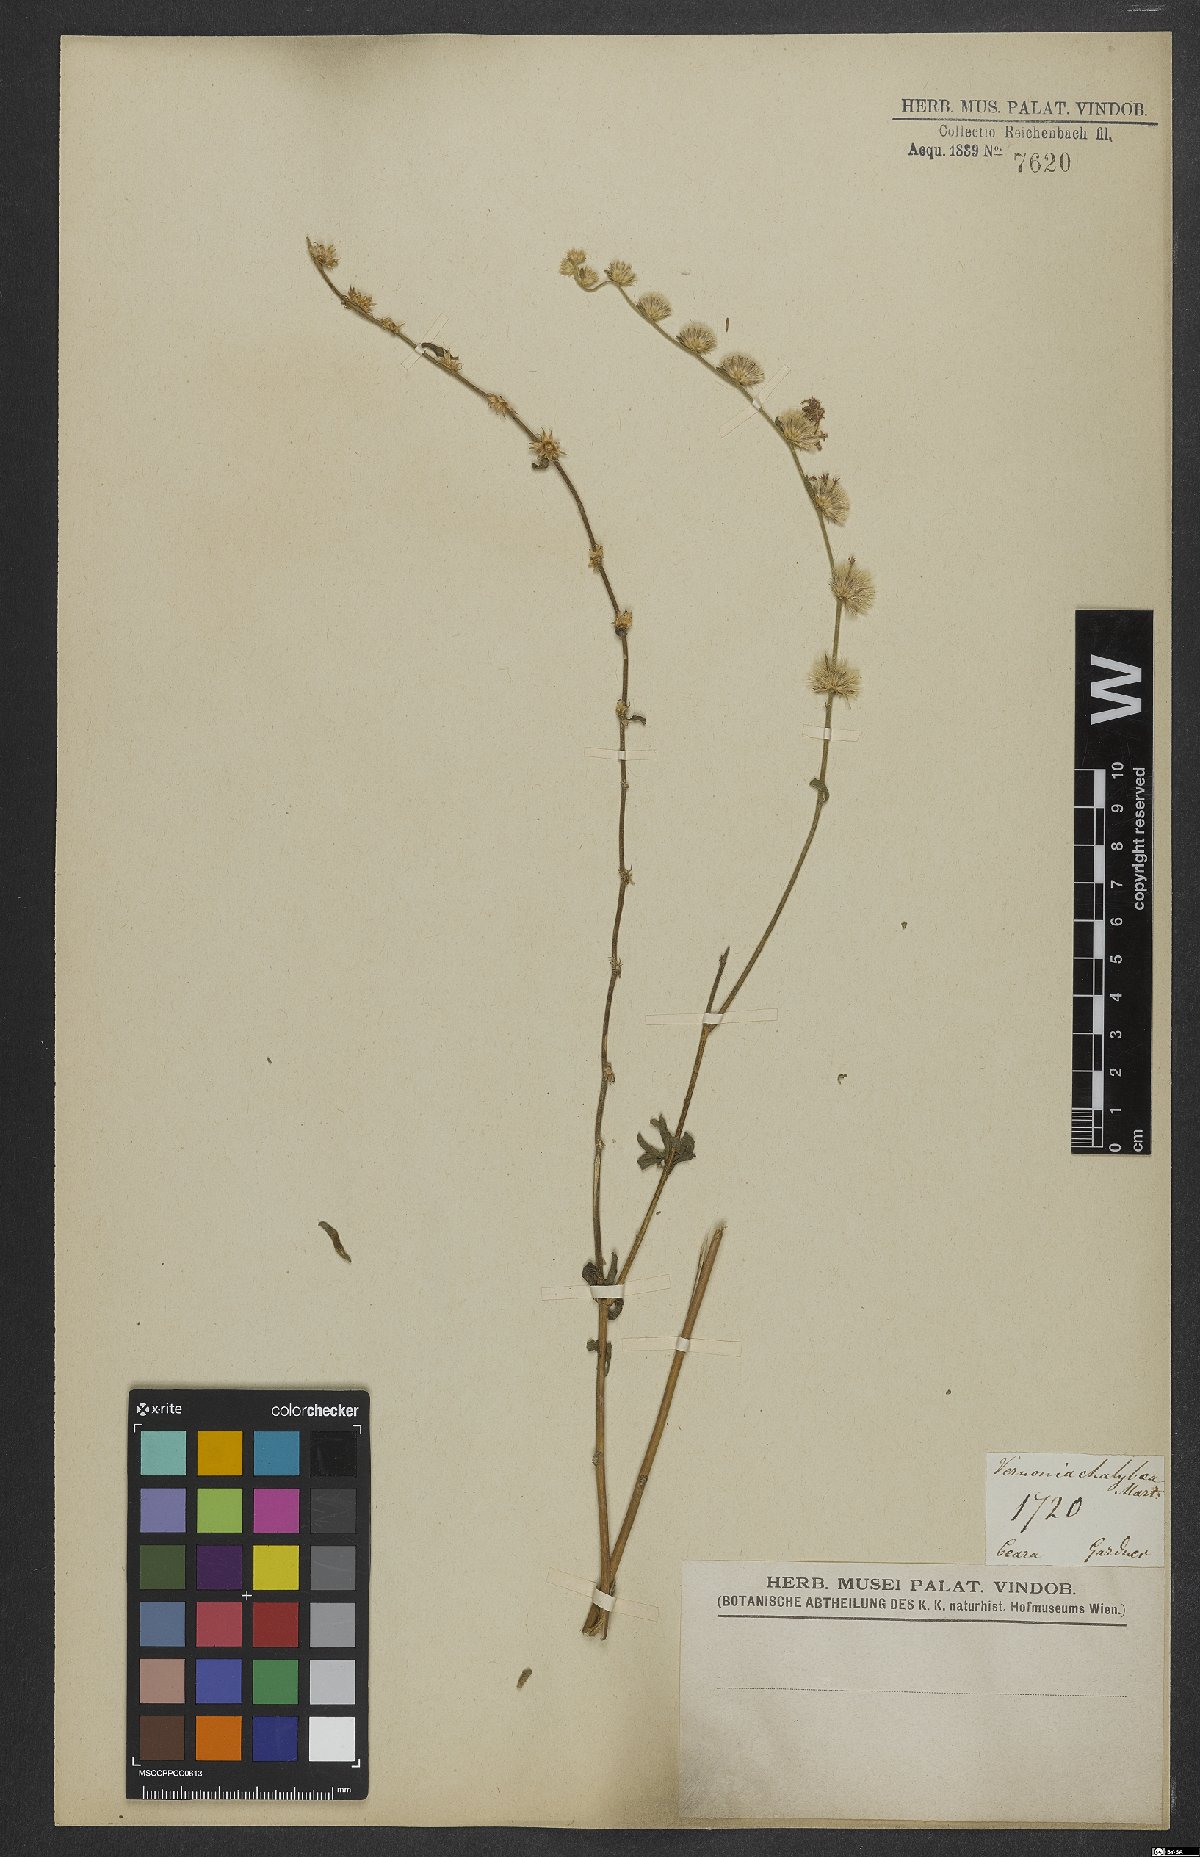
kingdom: Plantae
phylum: Tracheophyta
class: Magnoliopsida
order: Asterales
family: Asteraceae
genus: Lepidaploa
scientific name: Lepidaploa chalybaea
